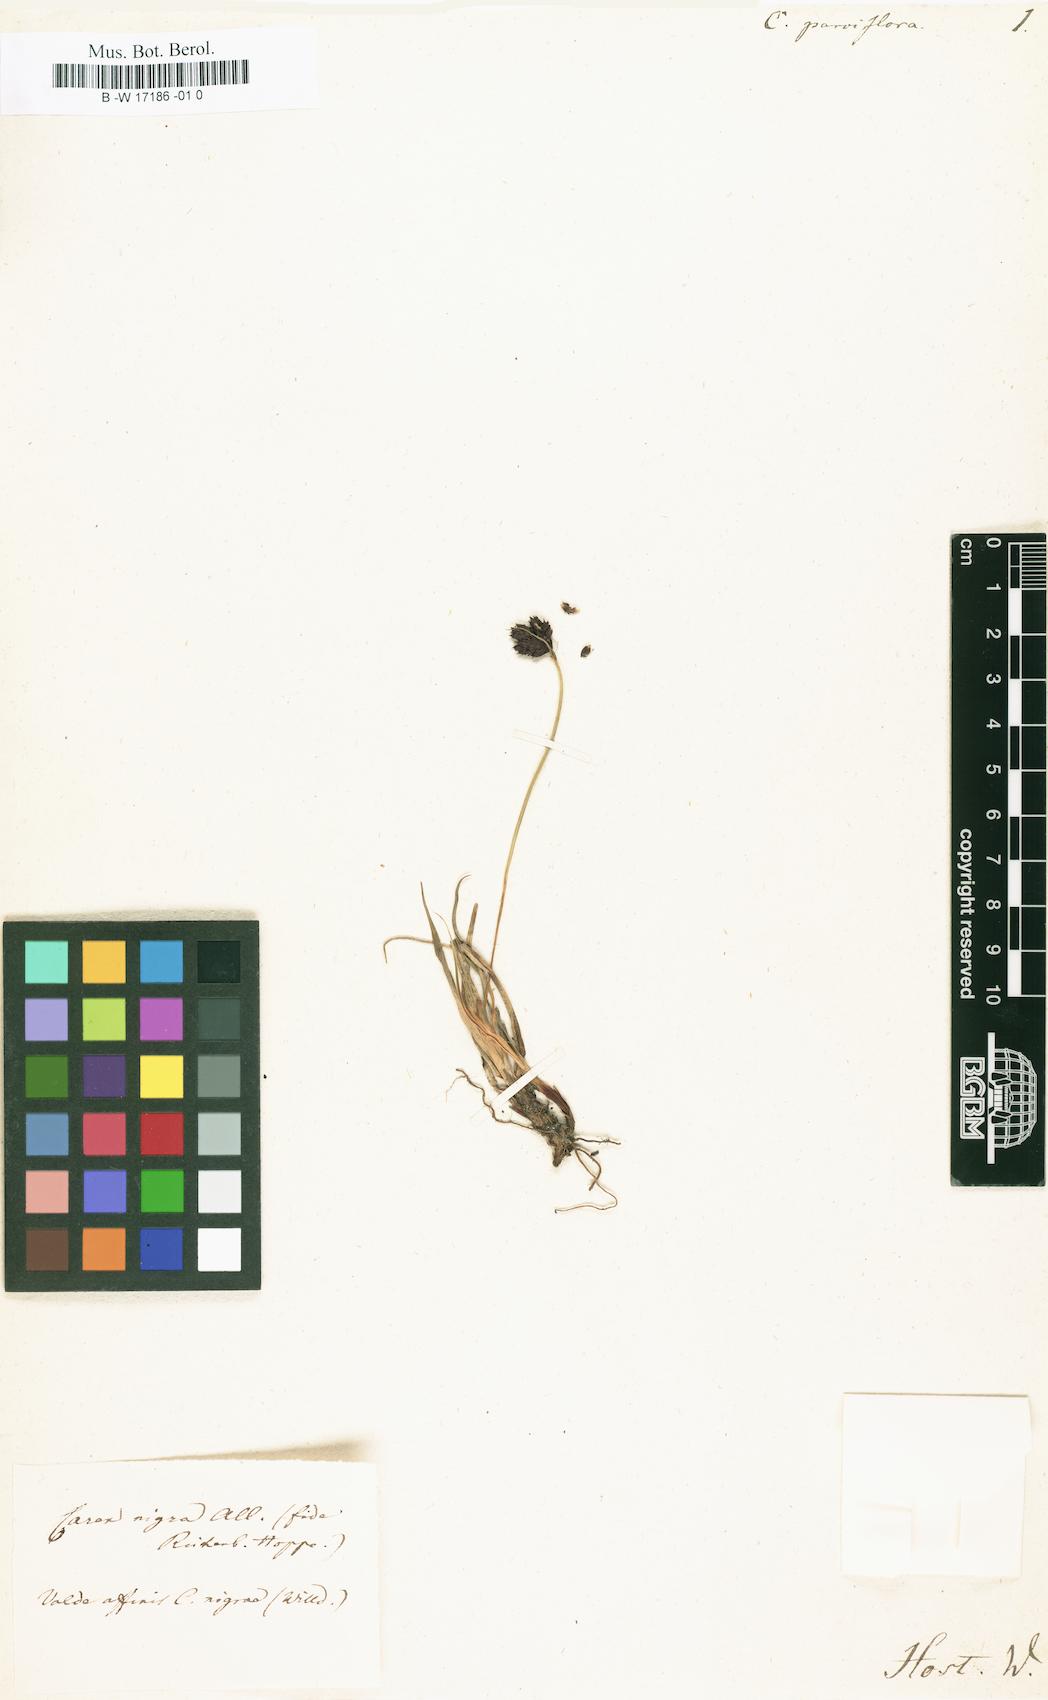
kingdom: Plantae
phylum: Tracheophyta
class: Liliopsida
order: Poales
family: Cyperaceae
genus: Carex
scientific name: Carex parviflora
